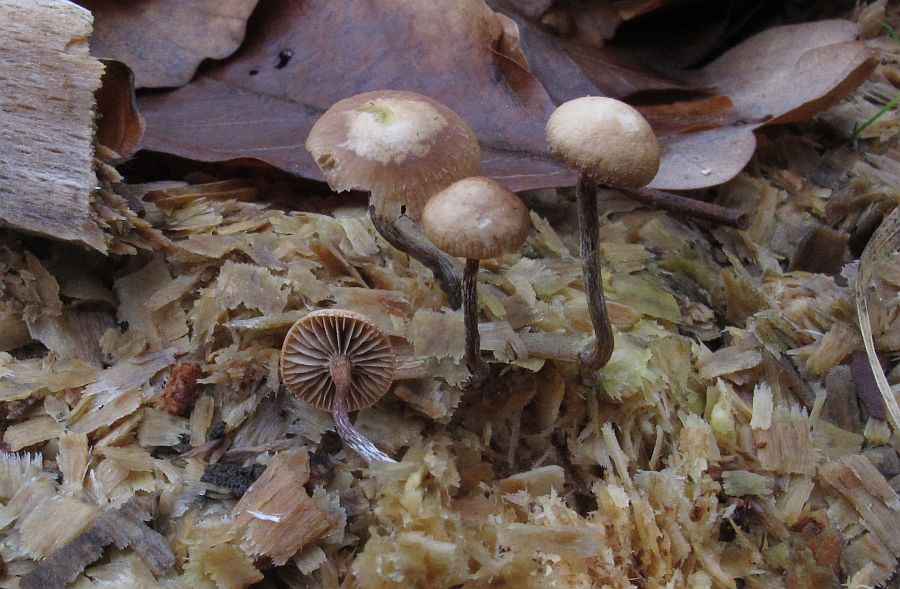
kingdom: Fungi
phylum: Basidiomycota
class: Agaricomycetes
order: Agaricales
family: Strophariaceae
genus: Deconica
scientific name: Deconica crobula
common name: træflis-stråhat
